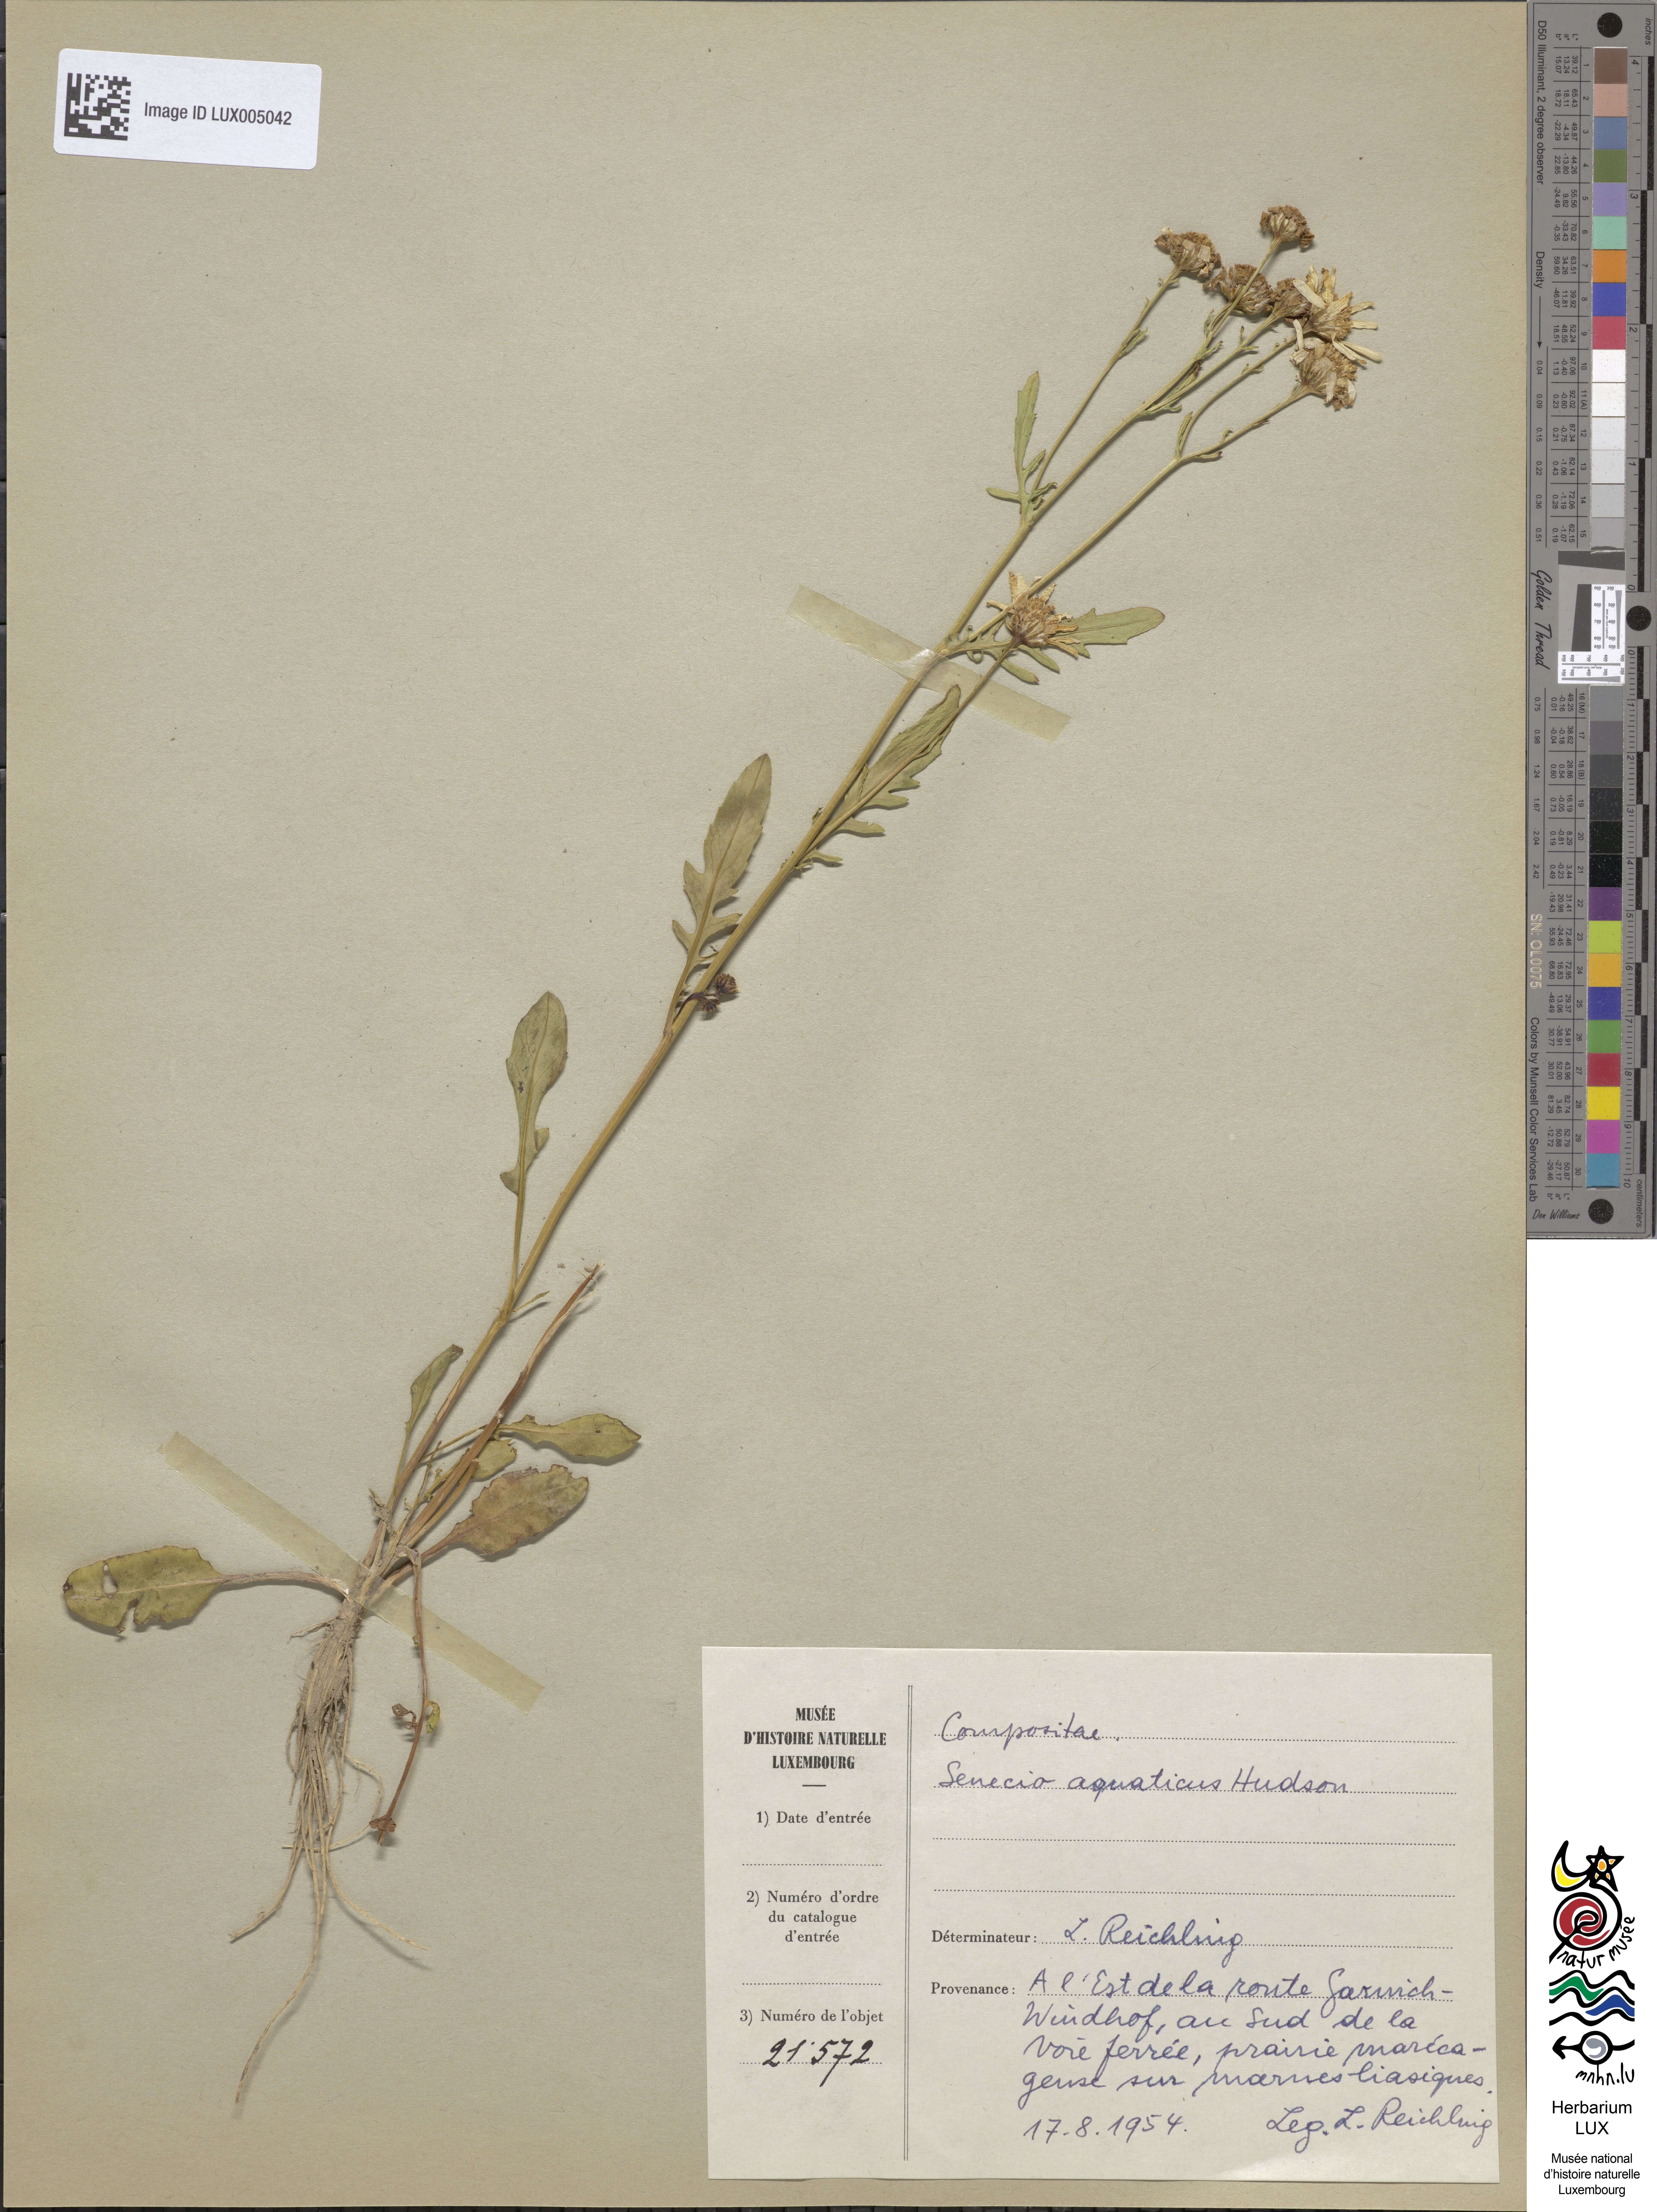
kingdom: Plantae
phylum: Tracheophyta
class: Magnoliopsida
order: Asterales
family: Asteraceae
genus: Jacobaea
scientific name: Jacobaea aquatica
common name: Water ragwort
